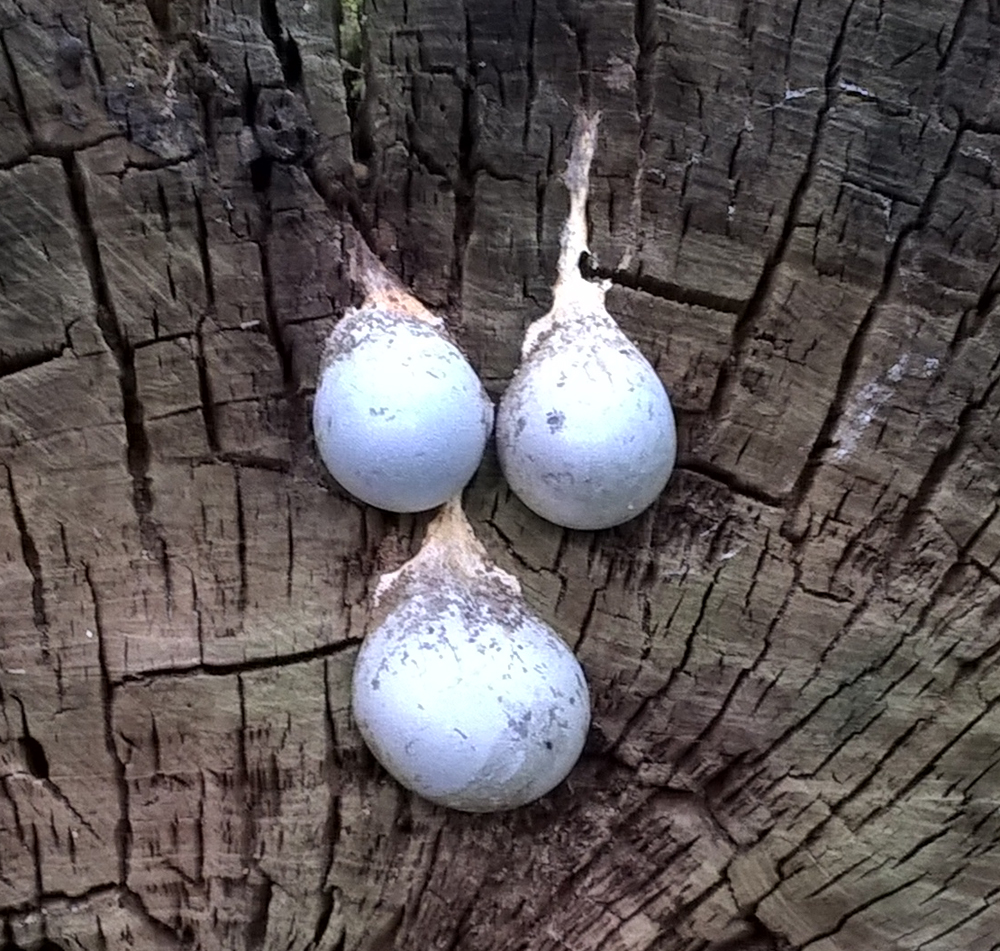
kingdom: Protozoa
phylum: Mycetozoa
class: Myxomycetes
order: Cribrariales
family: Tubiferaceae
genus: Lycogala
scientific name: Lycogala flavofuscum
